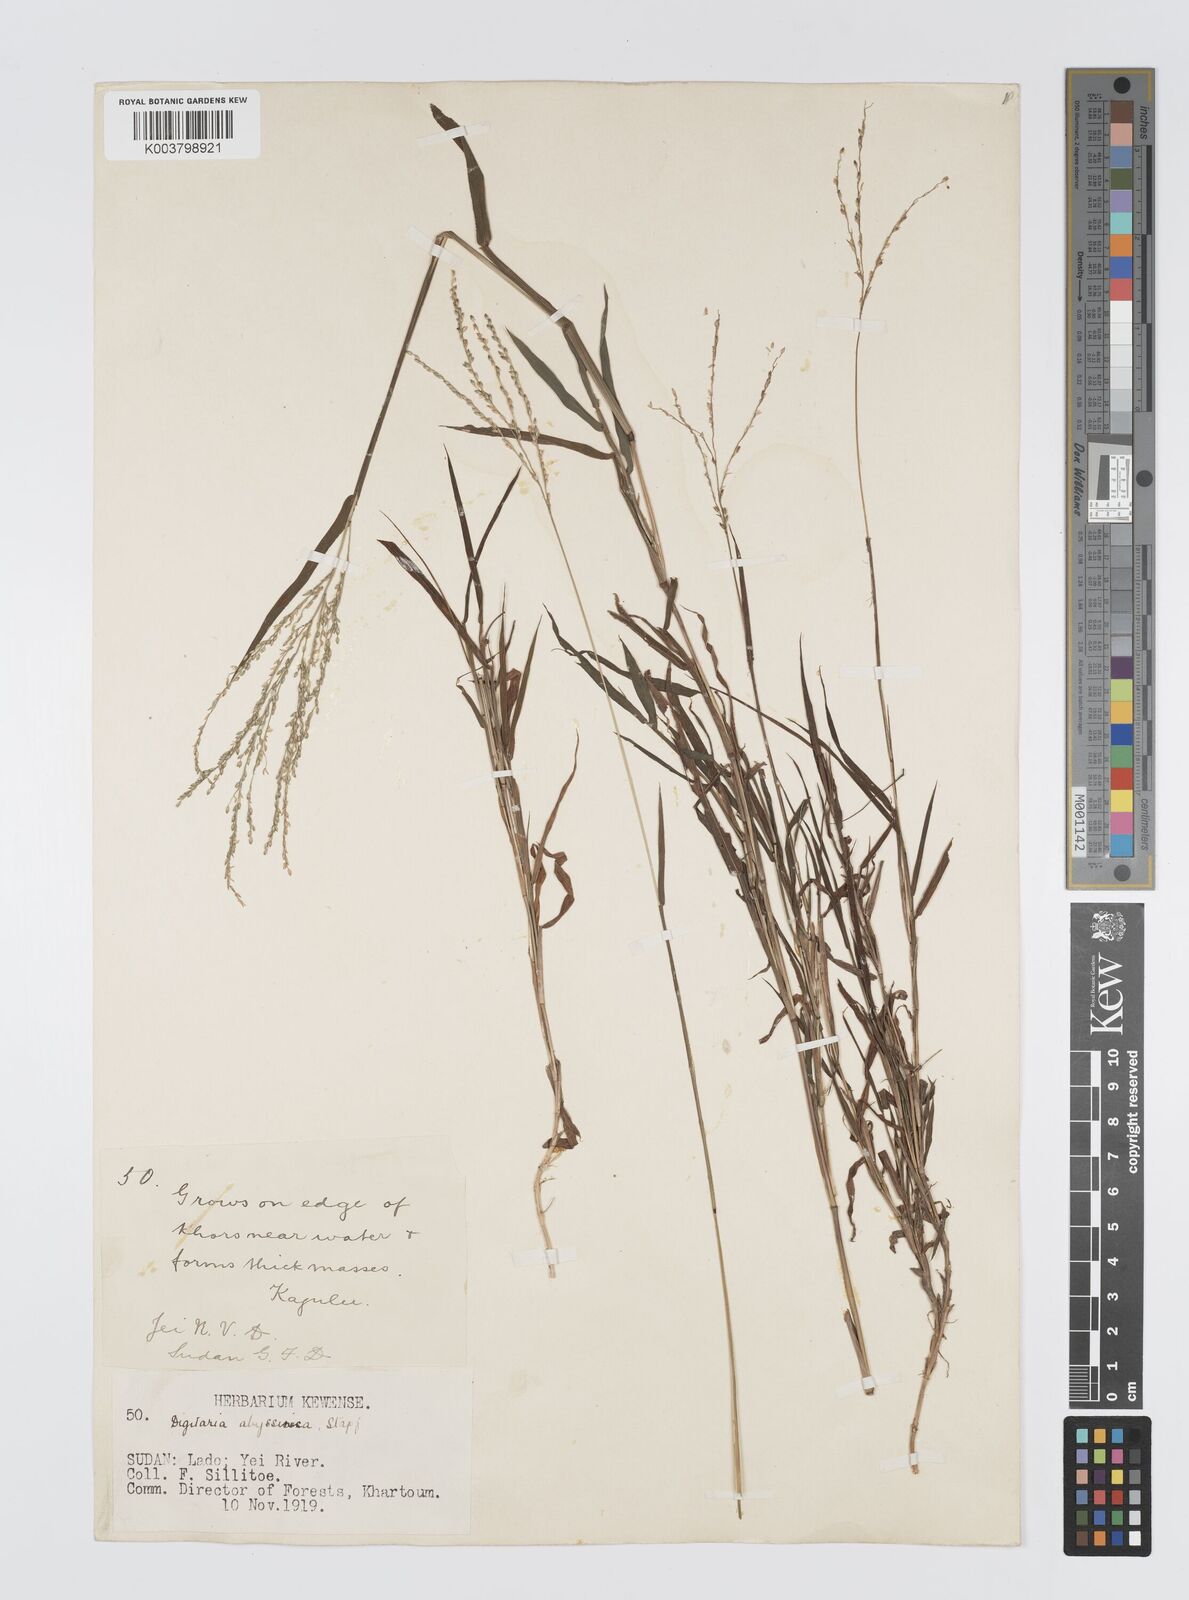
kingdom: Plantae
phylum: Tracheophyta
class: Liliopsida
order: Poales
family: Poaceae
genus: Digitaria
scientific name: Digitaria abyssinica
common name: African couchgrass
